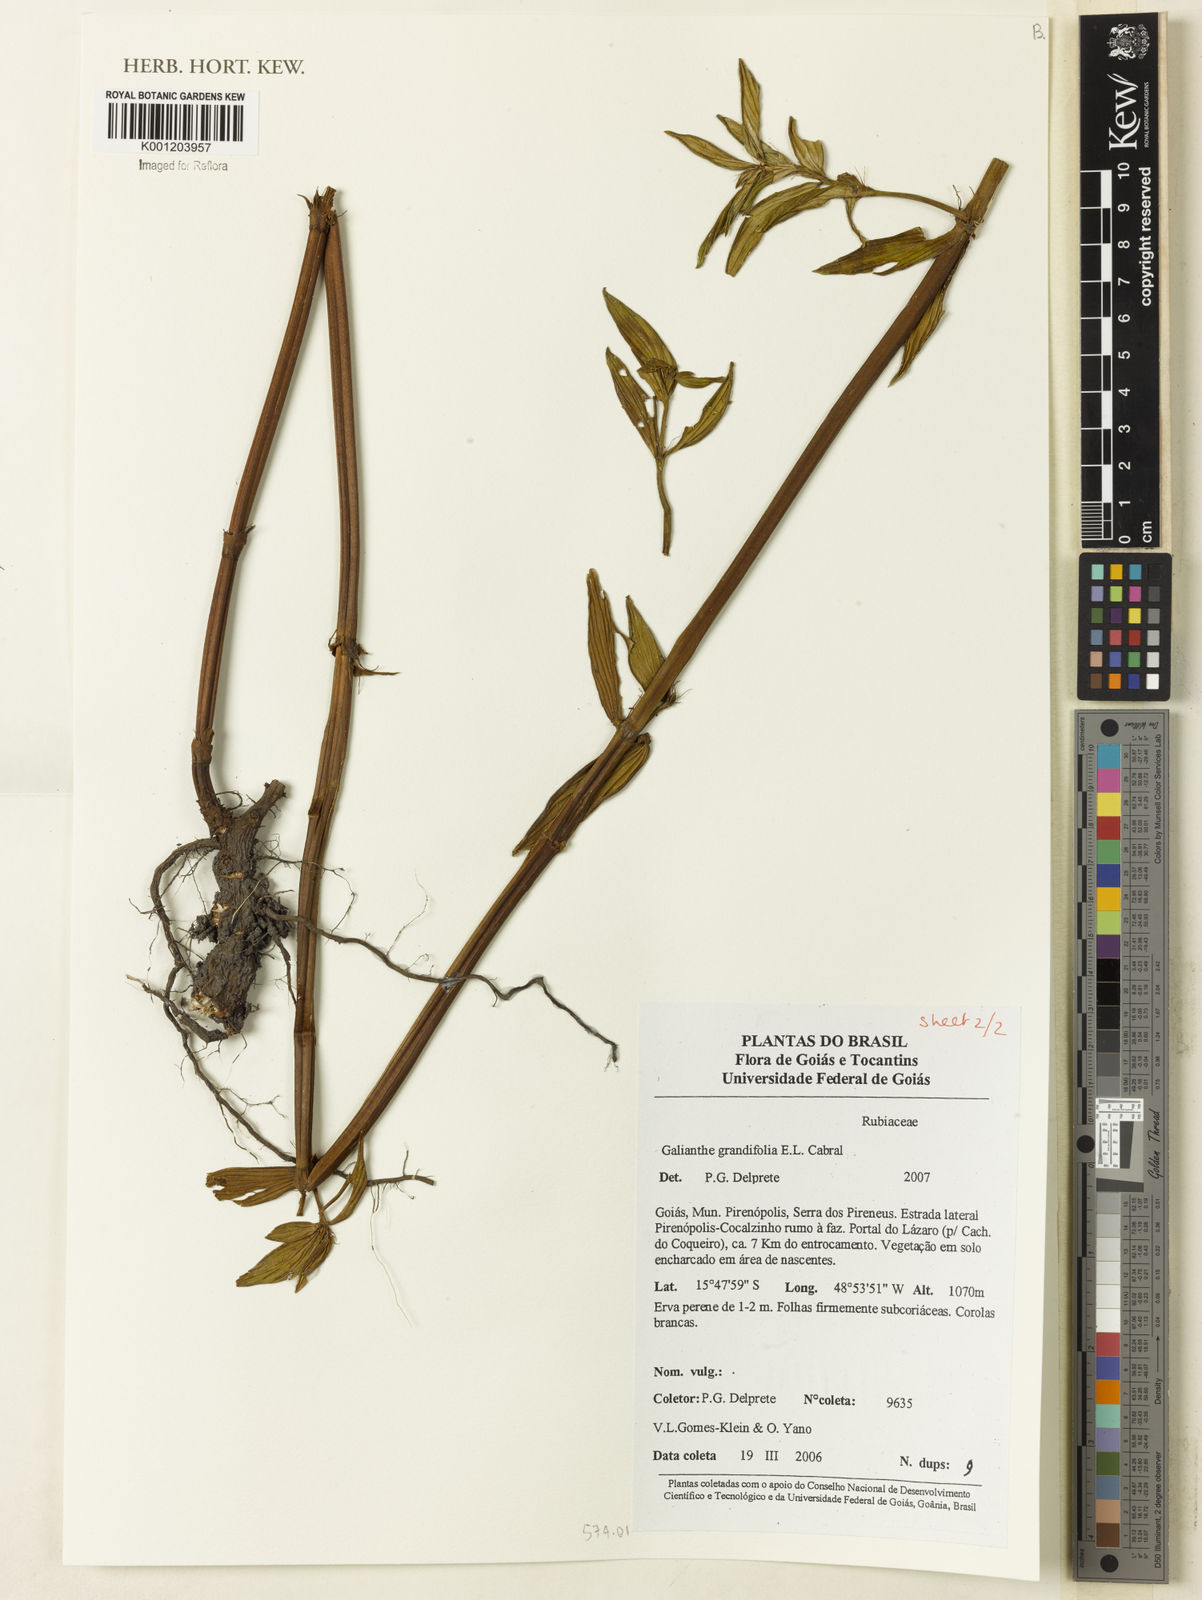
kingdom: Plantae
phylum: Tracheophyta
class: Magnoliopsida
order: Gentianales
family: Rubiaceae
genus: Galianthe
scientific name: Galianthe grandifolia
